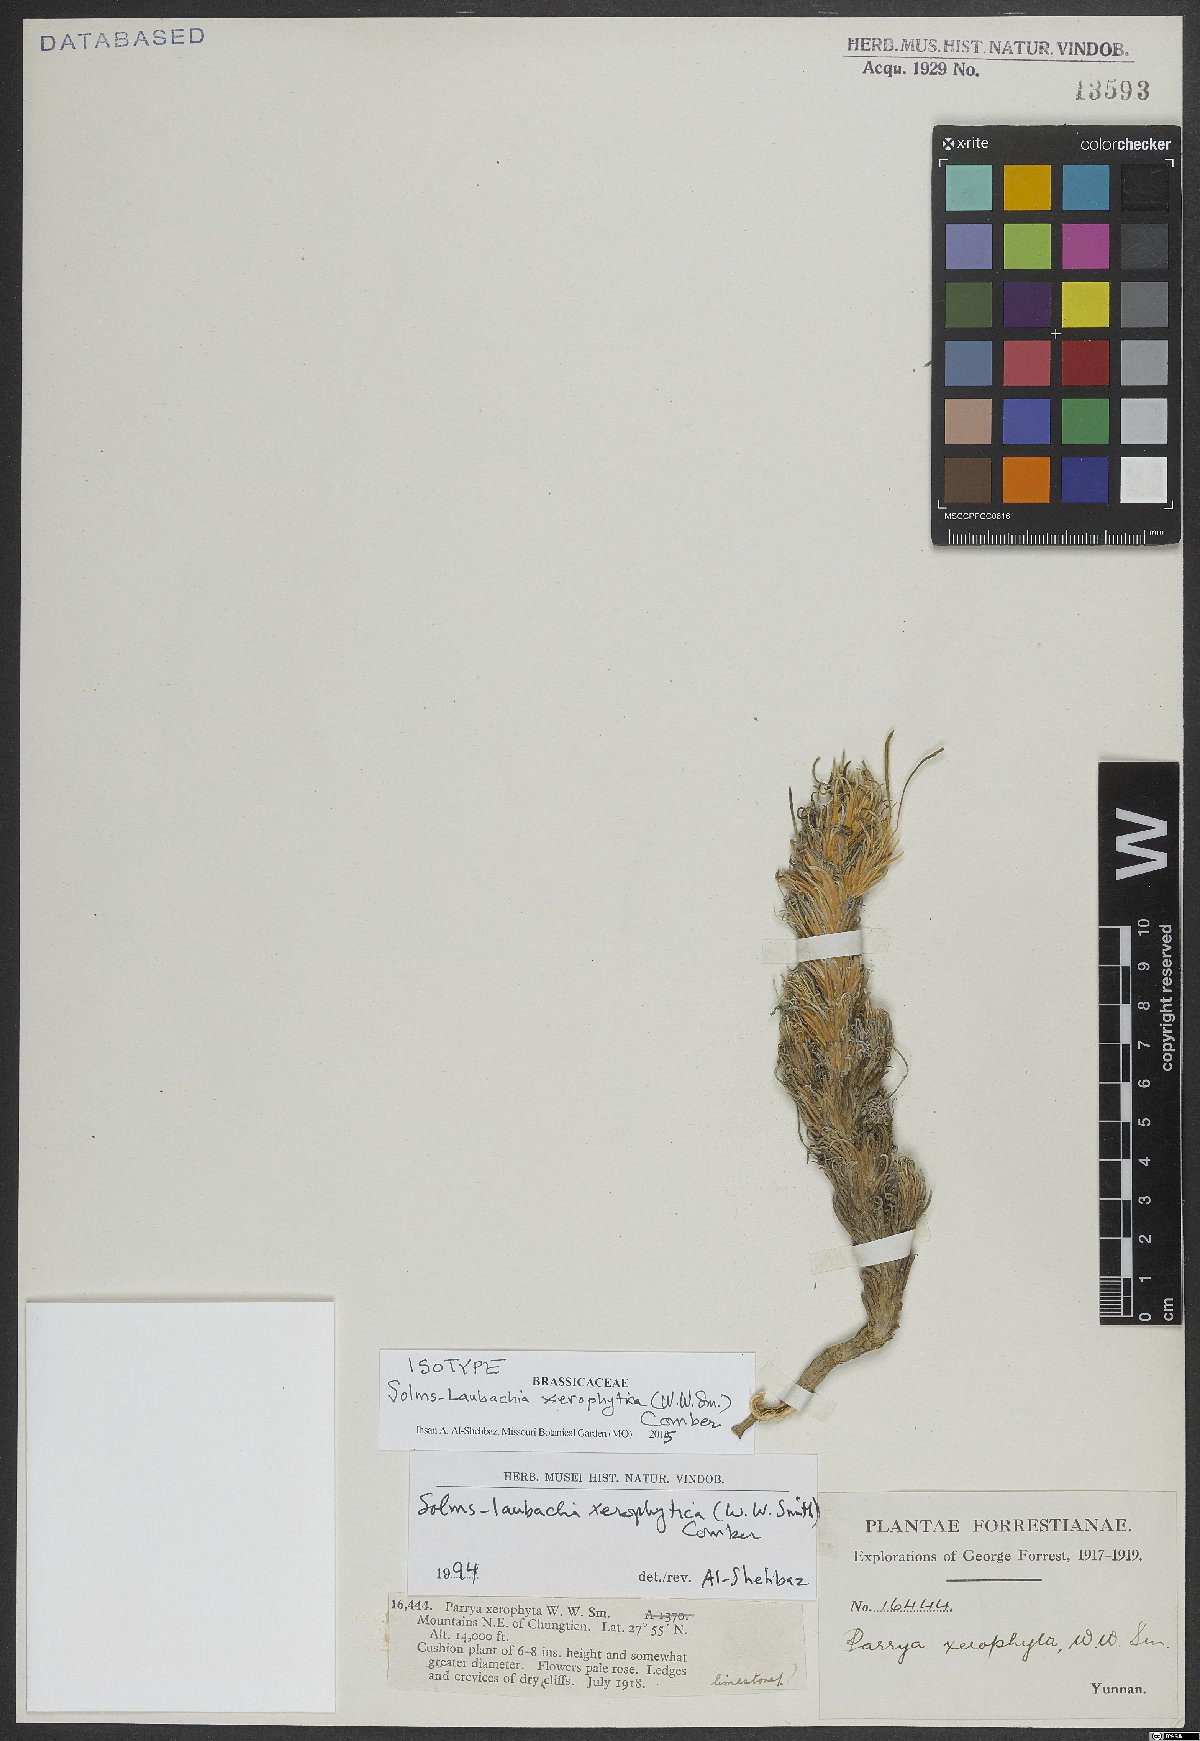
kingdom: Plantae
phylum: Tracheophyta
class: Magnoliopsida
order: Brassicales
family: Brassicaceae
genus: Solms-laubachia
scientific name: Solms-laubachia xerophyta
